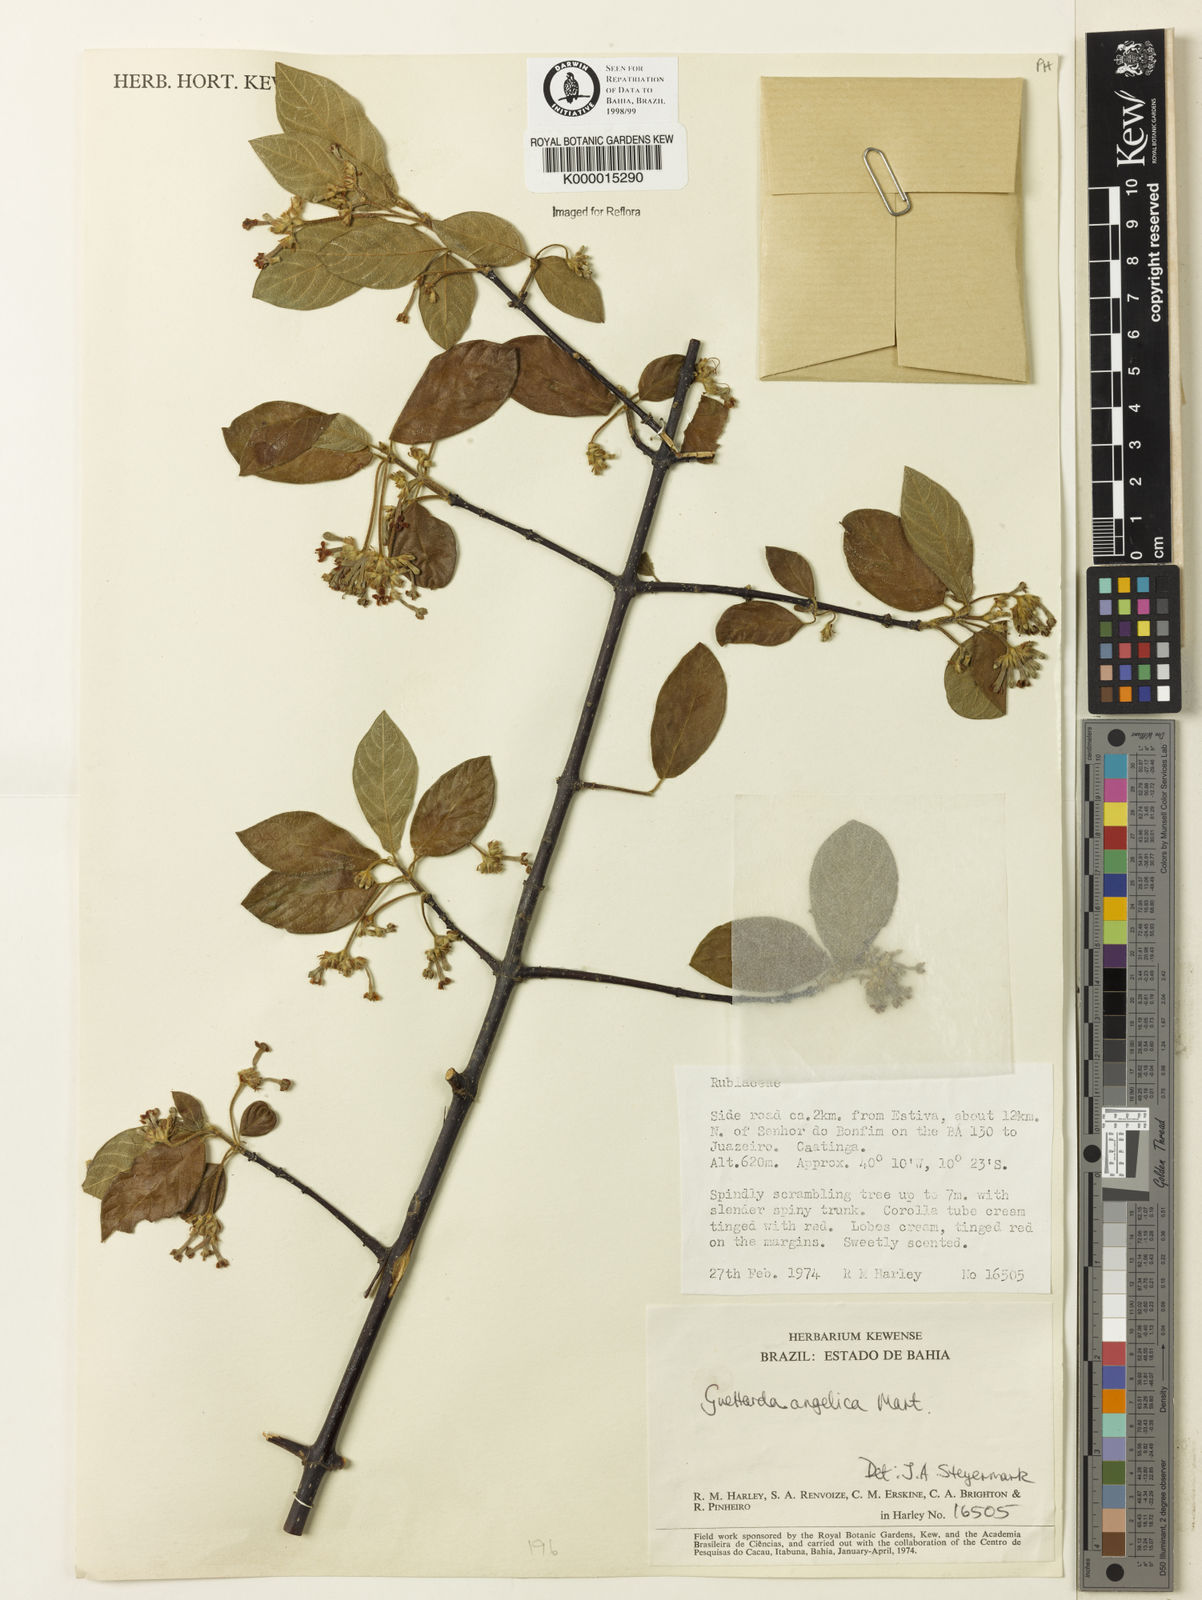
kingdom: Plantae
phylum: Tracheophyta
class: Magnoliopsida
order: Gentianales
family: Rubiaceae
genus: Guettarda
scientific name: Guettarda angelica
